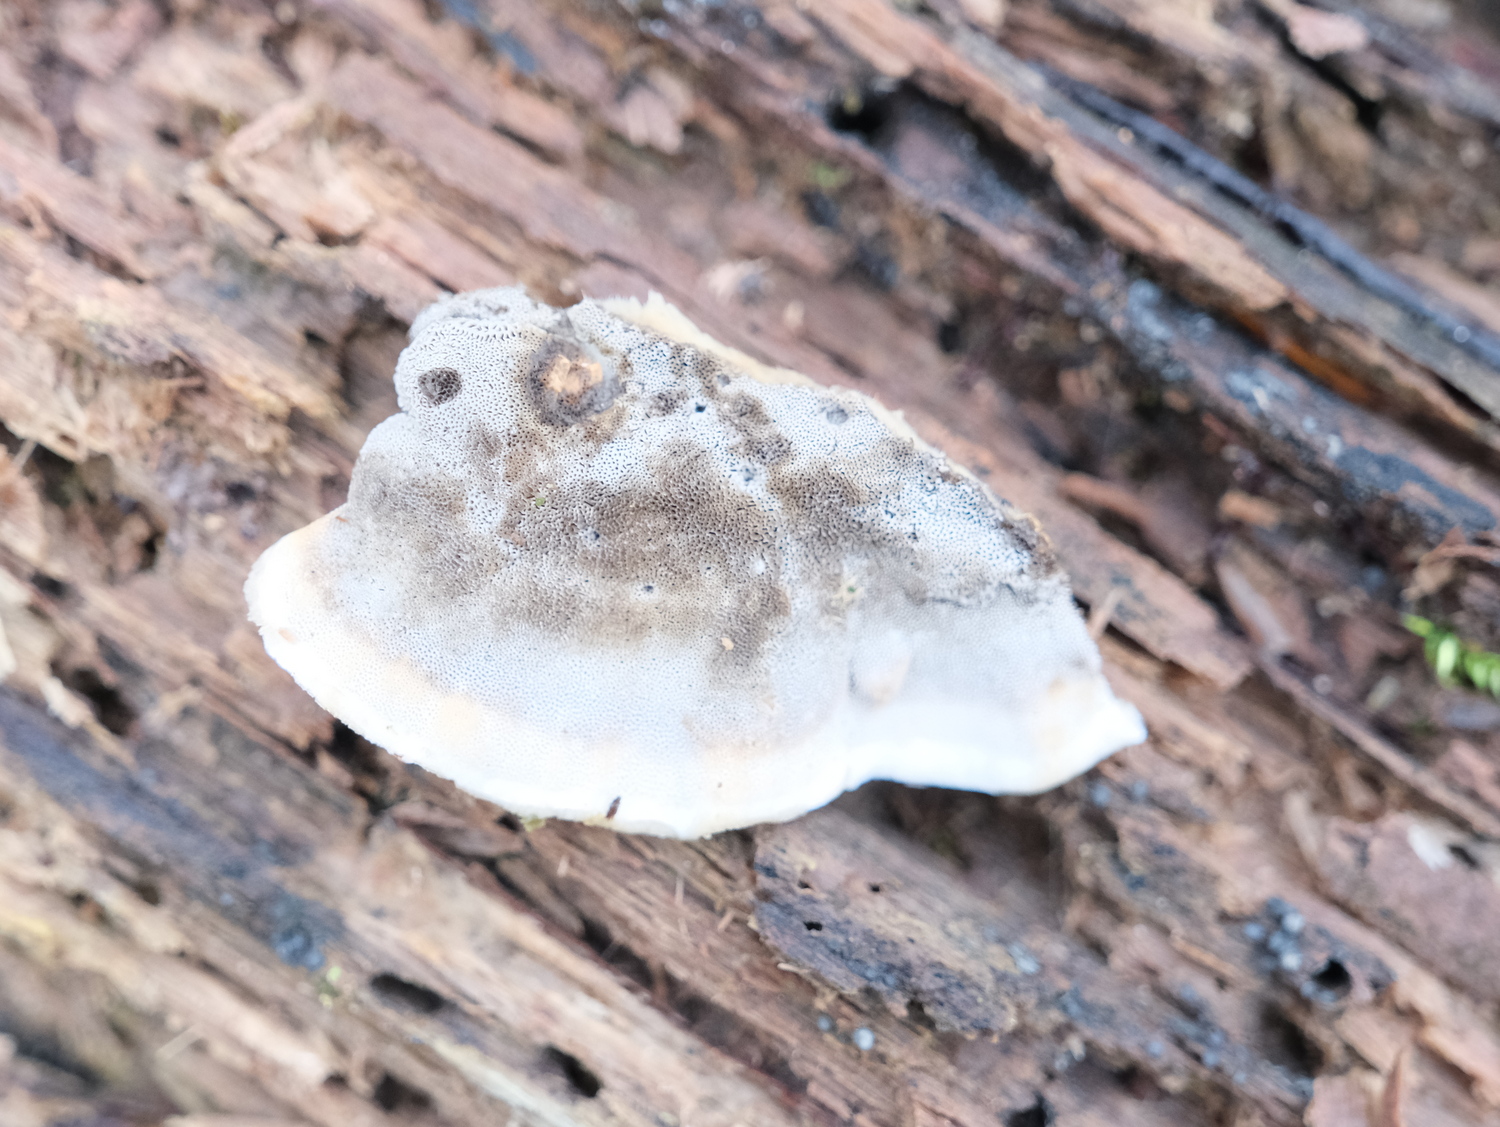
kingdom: Fungi
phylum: Basidiomycota
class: Agaricomycetes
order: Polyporales
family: Phanerochaetaceae
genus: Bjerkandera
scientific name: Bjerkandera adusta
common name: sveden sodporesvamp
